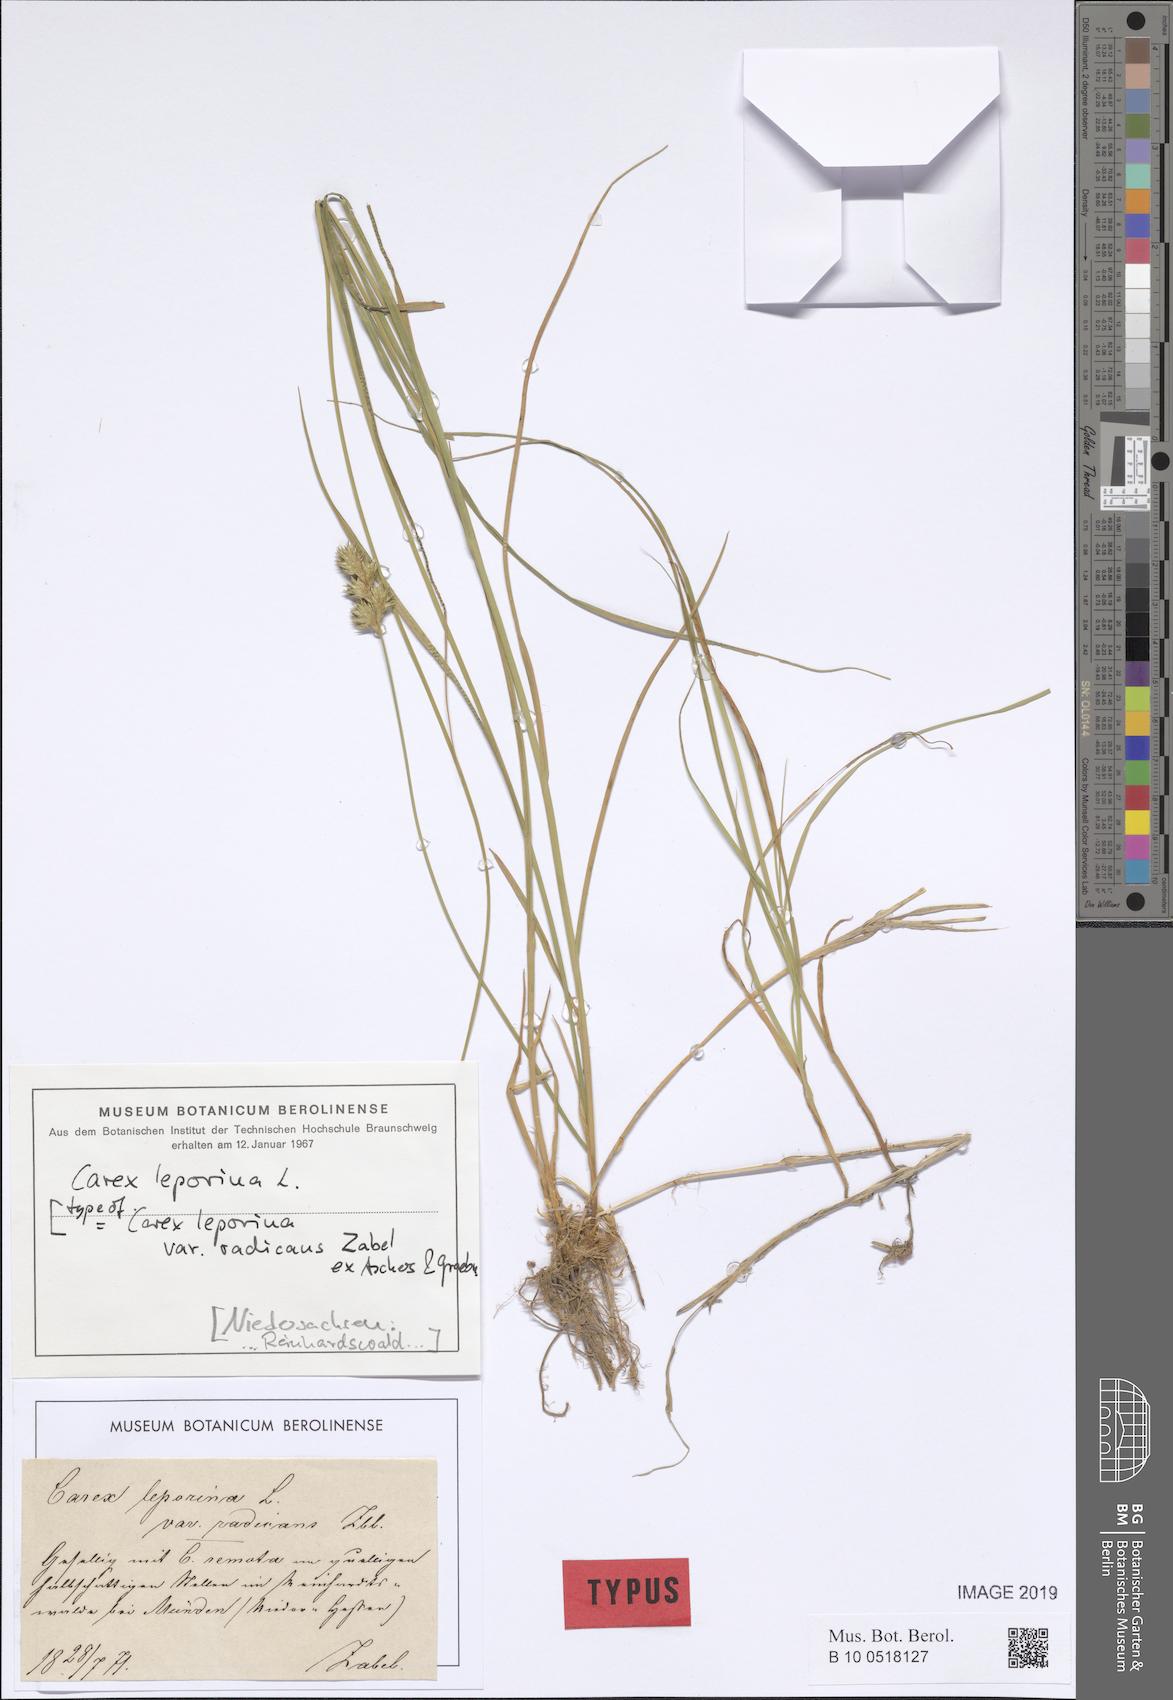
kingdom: Plantae
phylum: Tracheophyta
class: Liliopsida
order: Poales
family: Cyperaceae
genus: Carex
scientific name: Carex leporina
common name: Oval sedge
